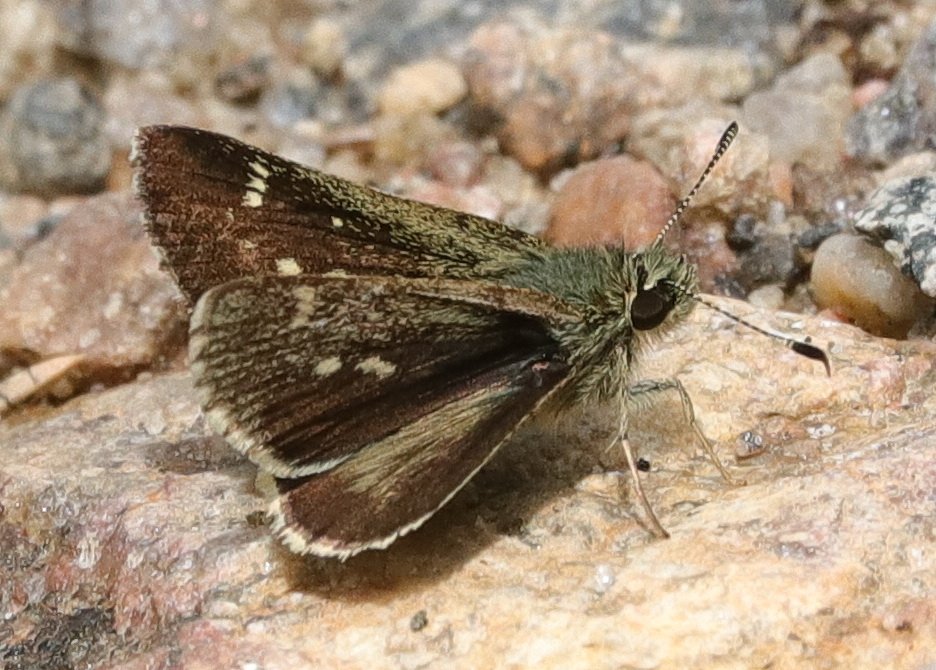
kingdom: Animalia
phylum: Arthropoda
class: Insecta
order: Lepidoptera
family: Hesperiidae
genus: Mastor
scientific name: Mastor hegon
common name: Pepper and Salt Skipper
